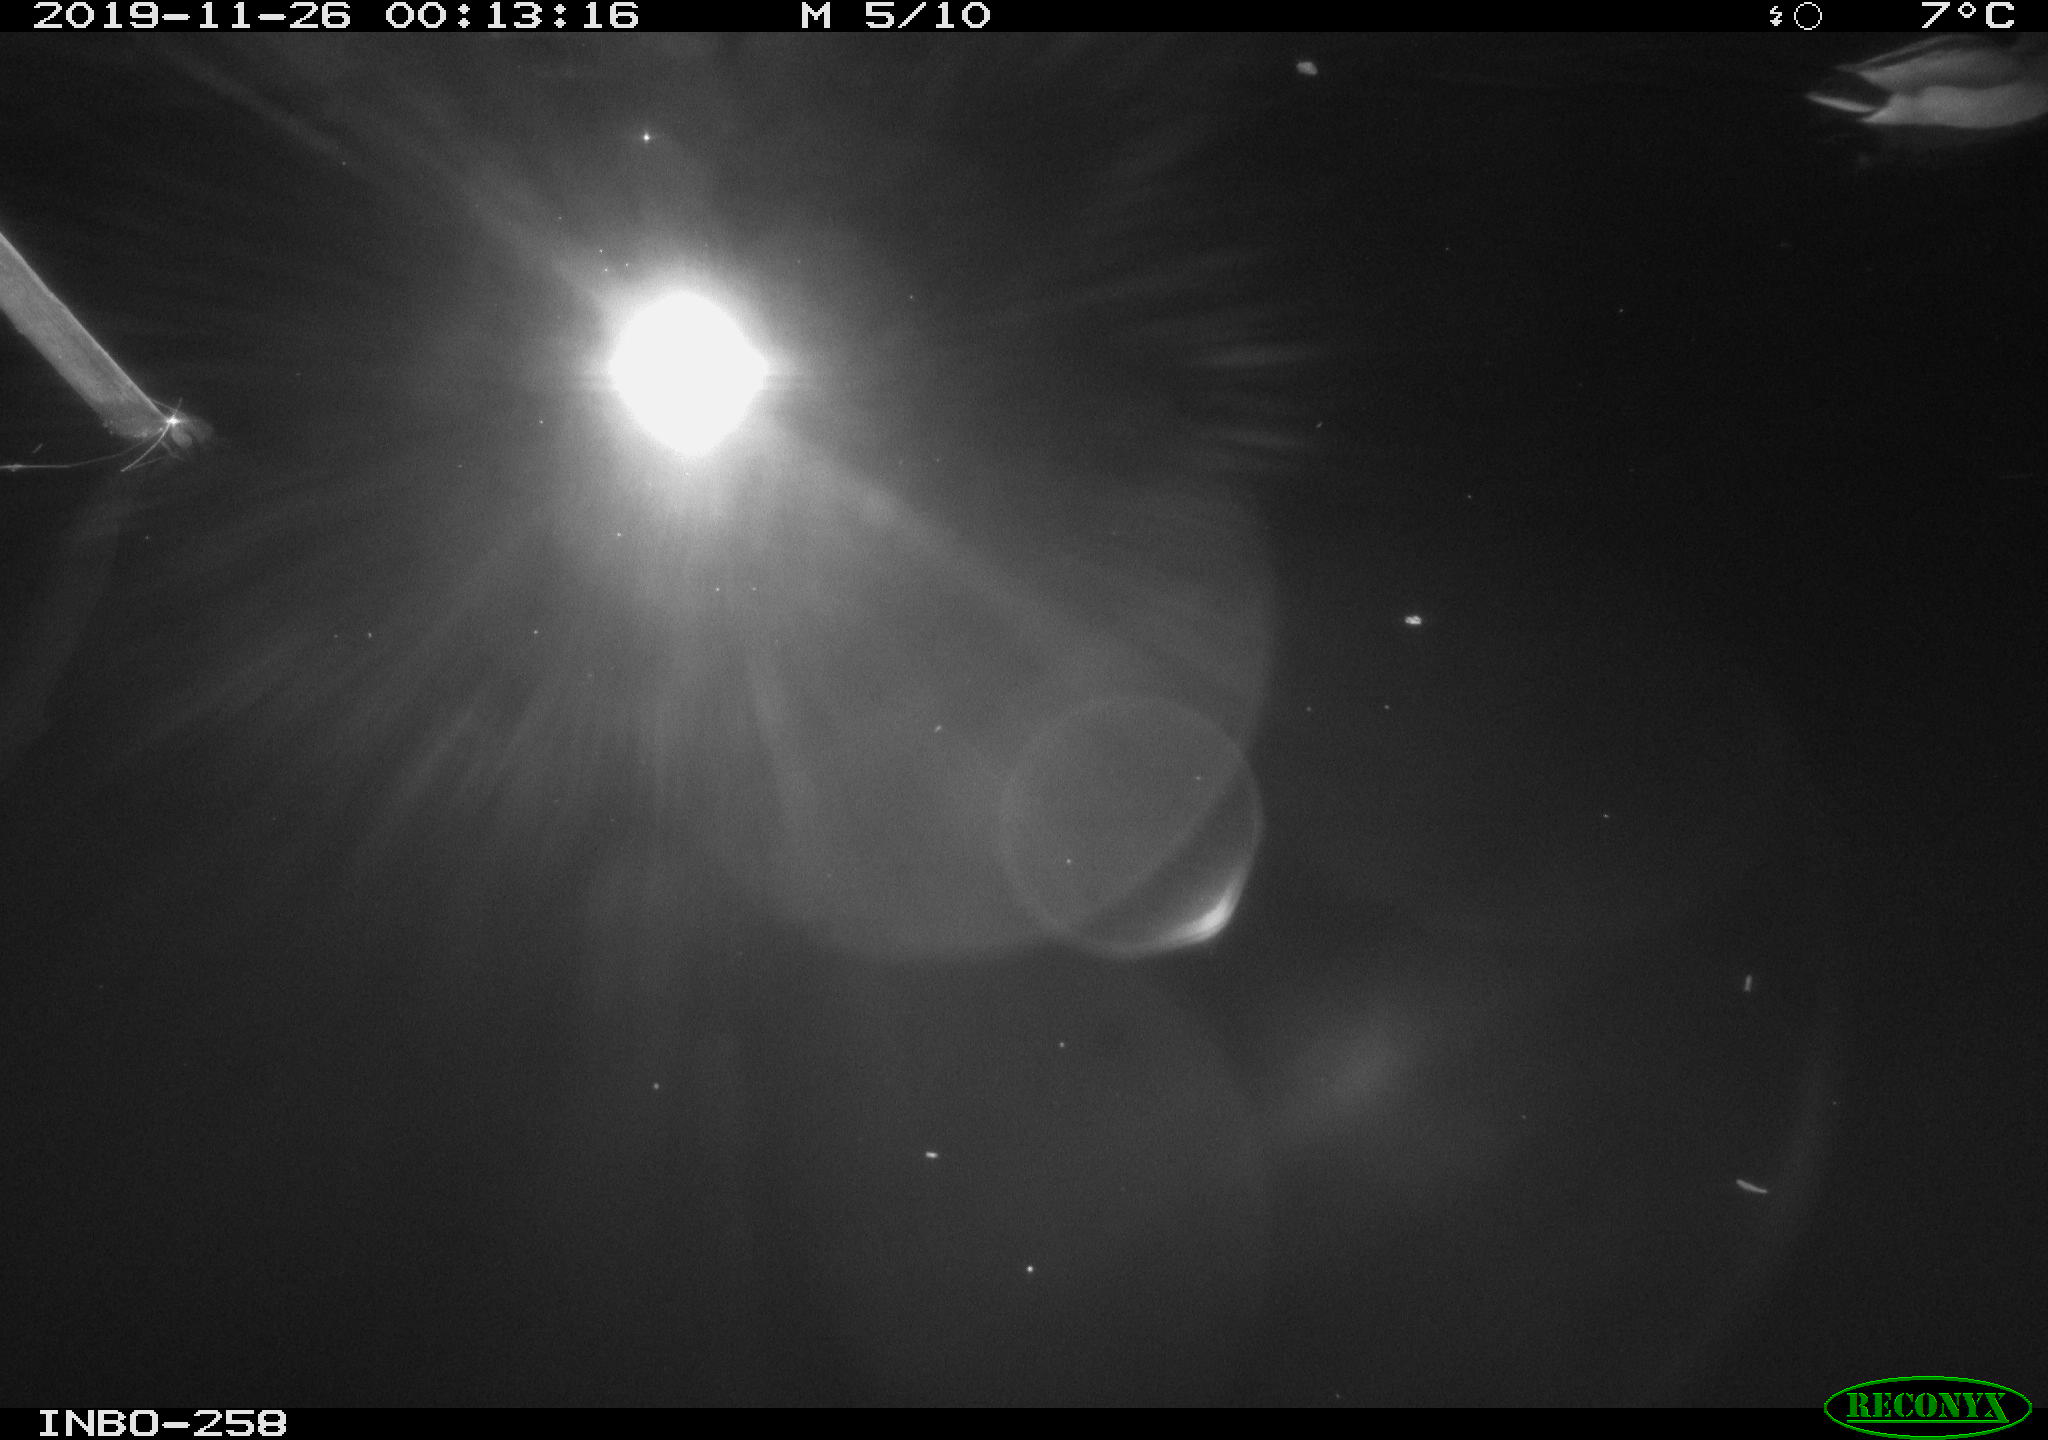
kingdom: Animalia
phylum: Chordata
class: Aves
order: Anseriformes
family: Anatidae
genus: Anas
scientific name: Anas platyrhynchos
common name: Mallard
